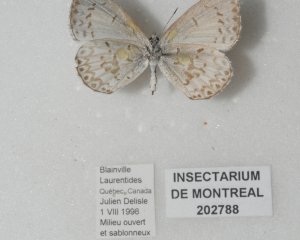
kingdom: Animalia
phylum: Arthropoda
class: Insecta
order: Lepidoptera
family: Lycaenidae
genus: Cyaniris
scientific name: Cyaniris neglecta
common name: Summer Azure
